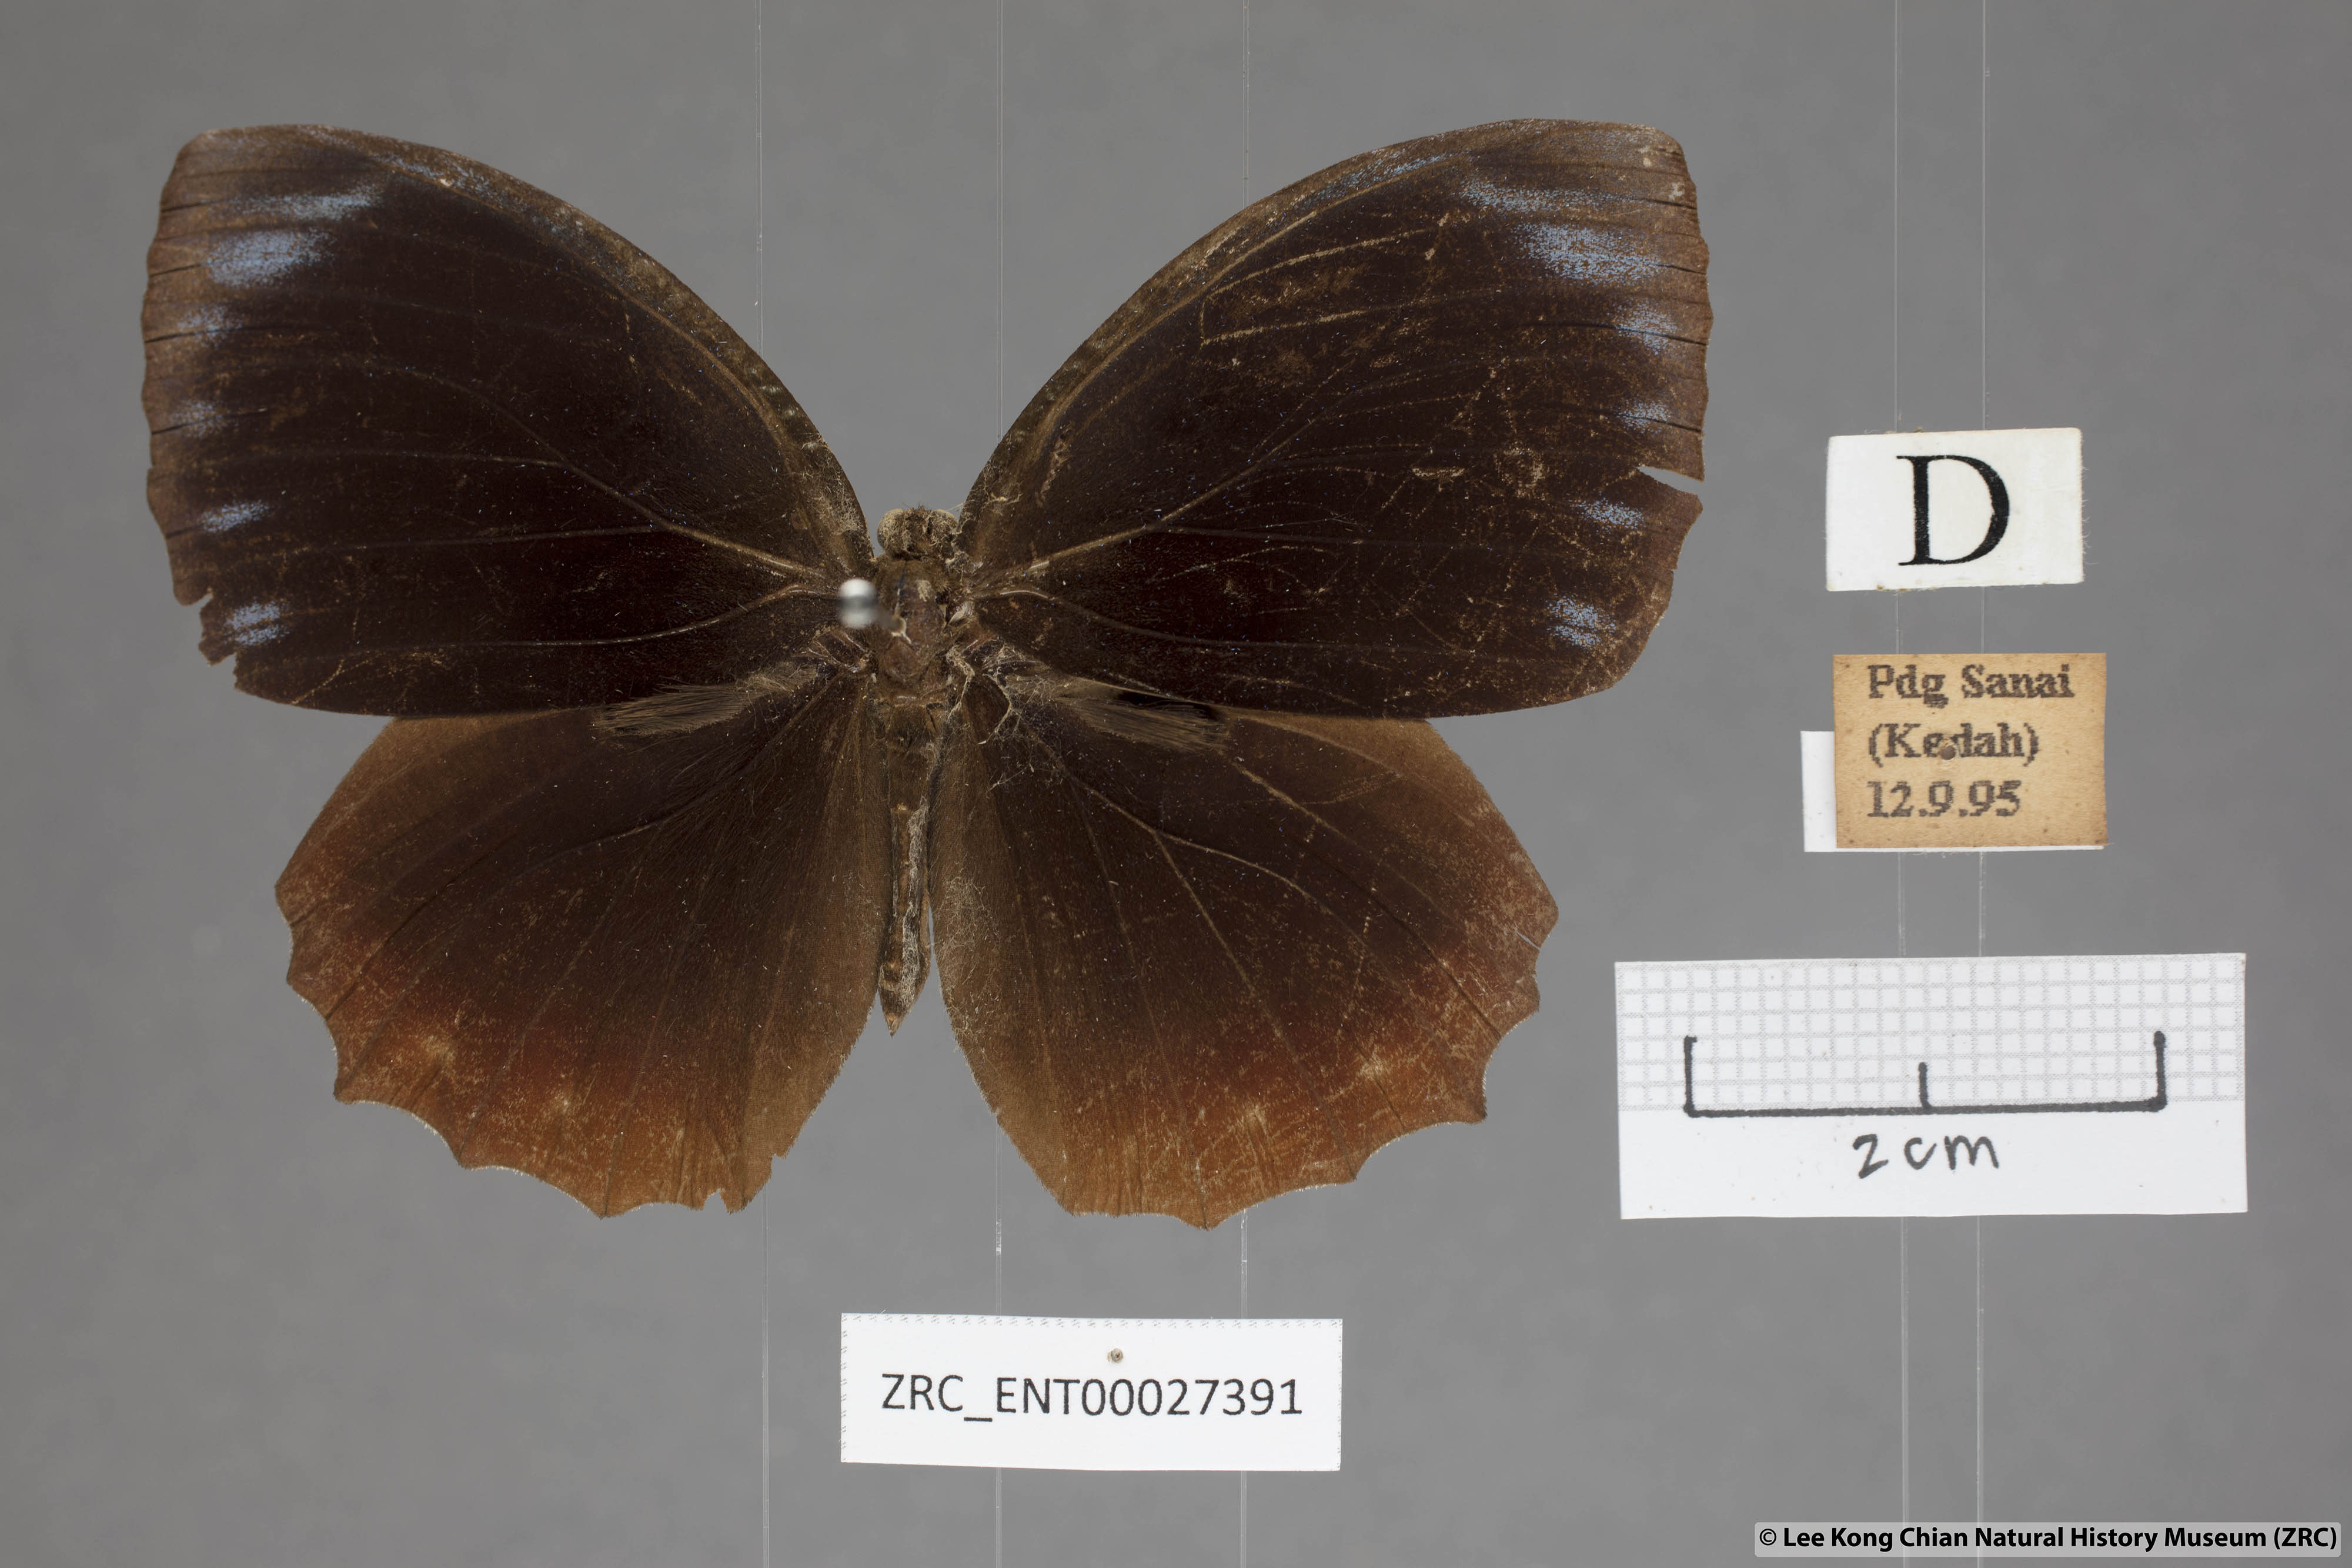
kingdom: Animalia
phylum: Arthropoda
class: Insecta
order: Lepidoptera
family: Nymphalidae
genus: Elymnias
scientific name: Elymnias hypermnestra
